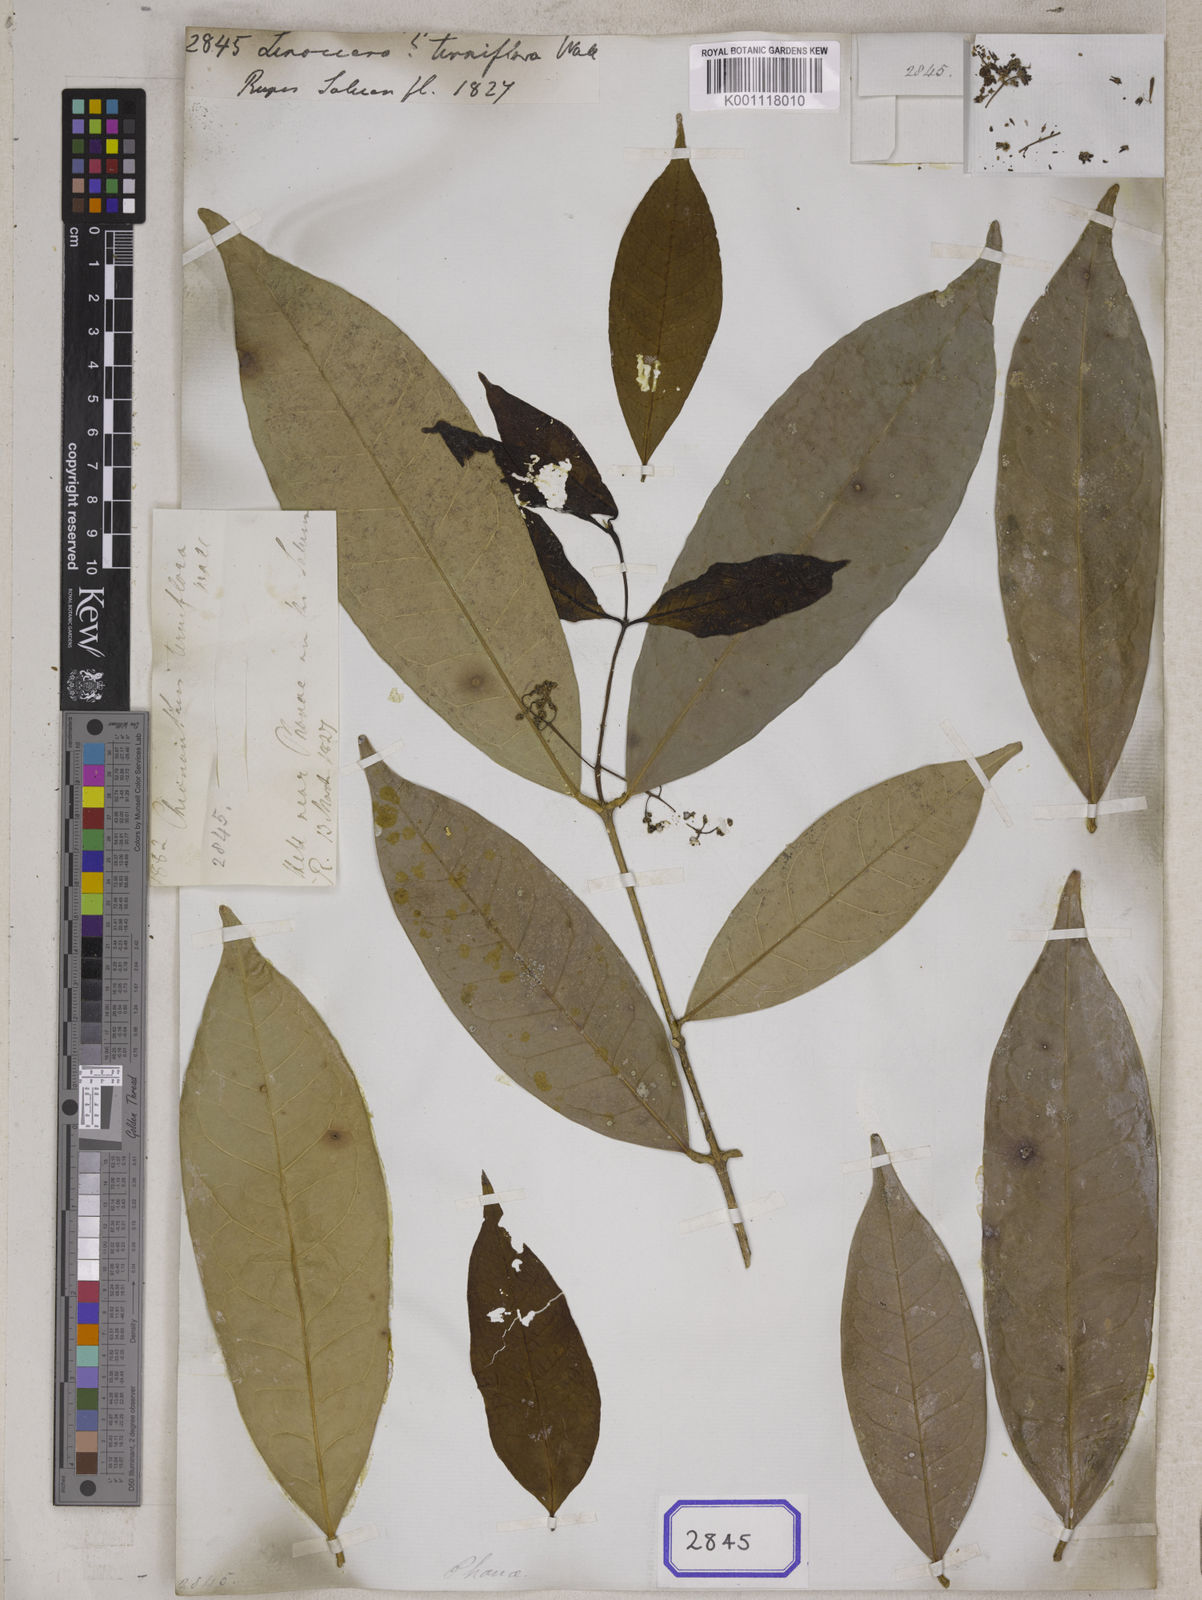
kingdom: Plantae
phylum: Tracheophyta
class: Magnoliopsida
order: Lamiales
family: Oleaceae
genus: Chionanthus
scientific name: Chionanthus
